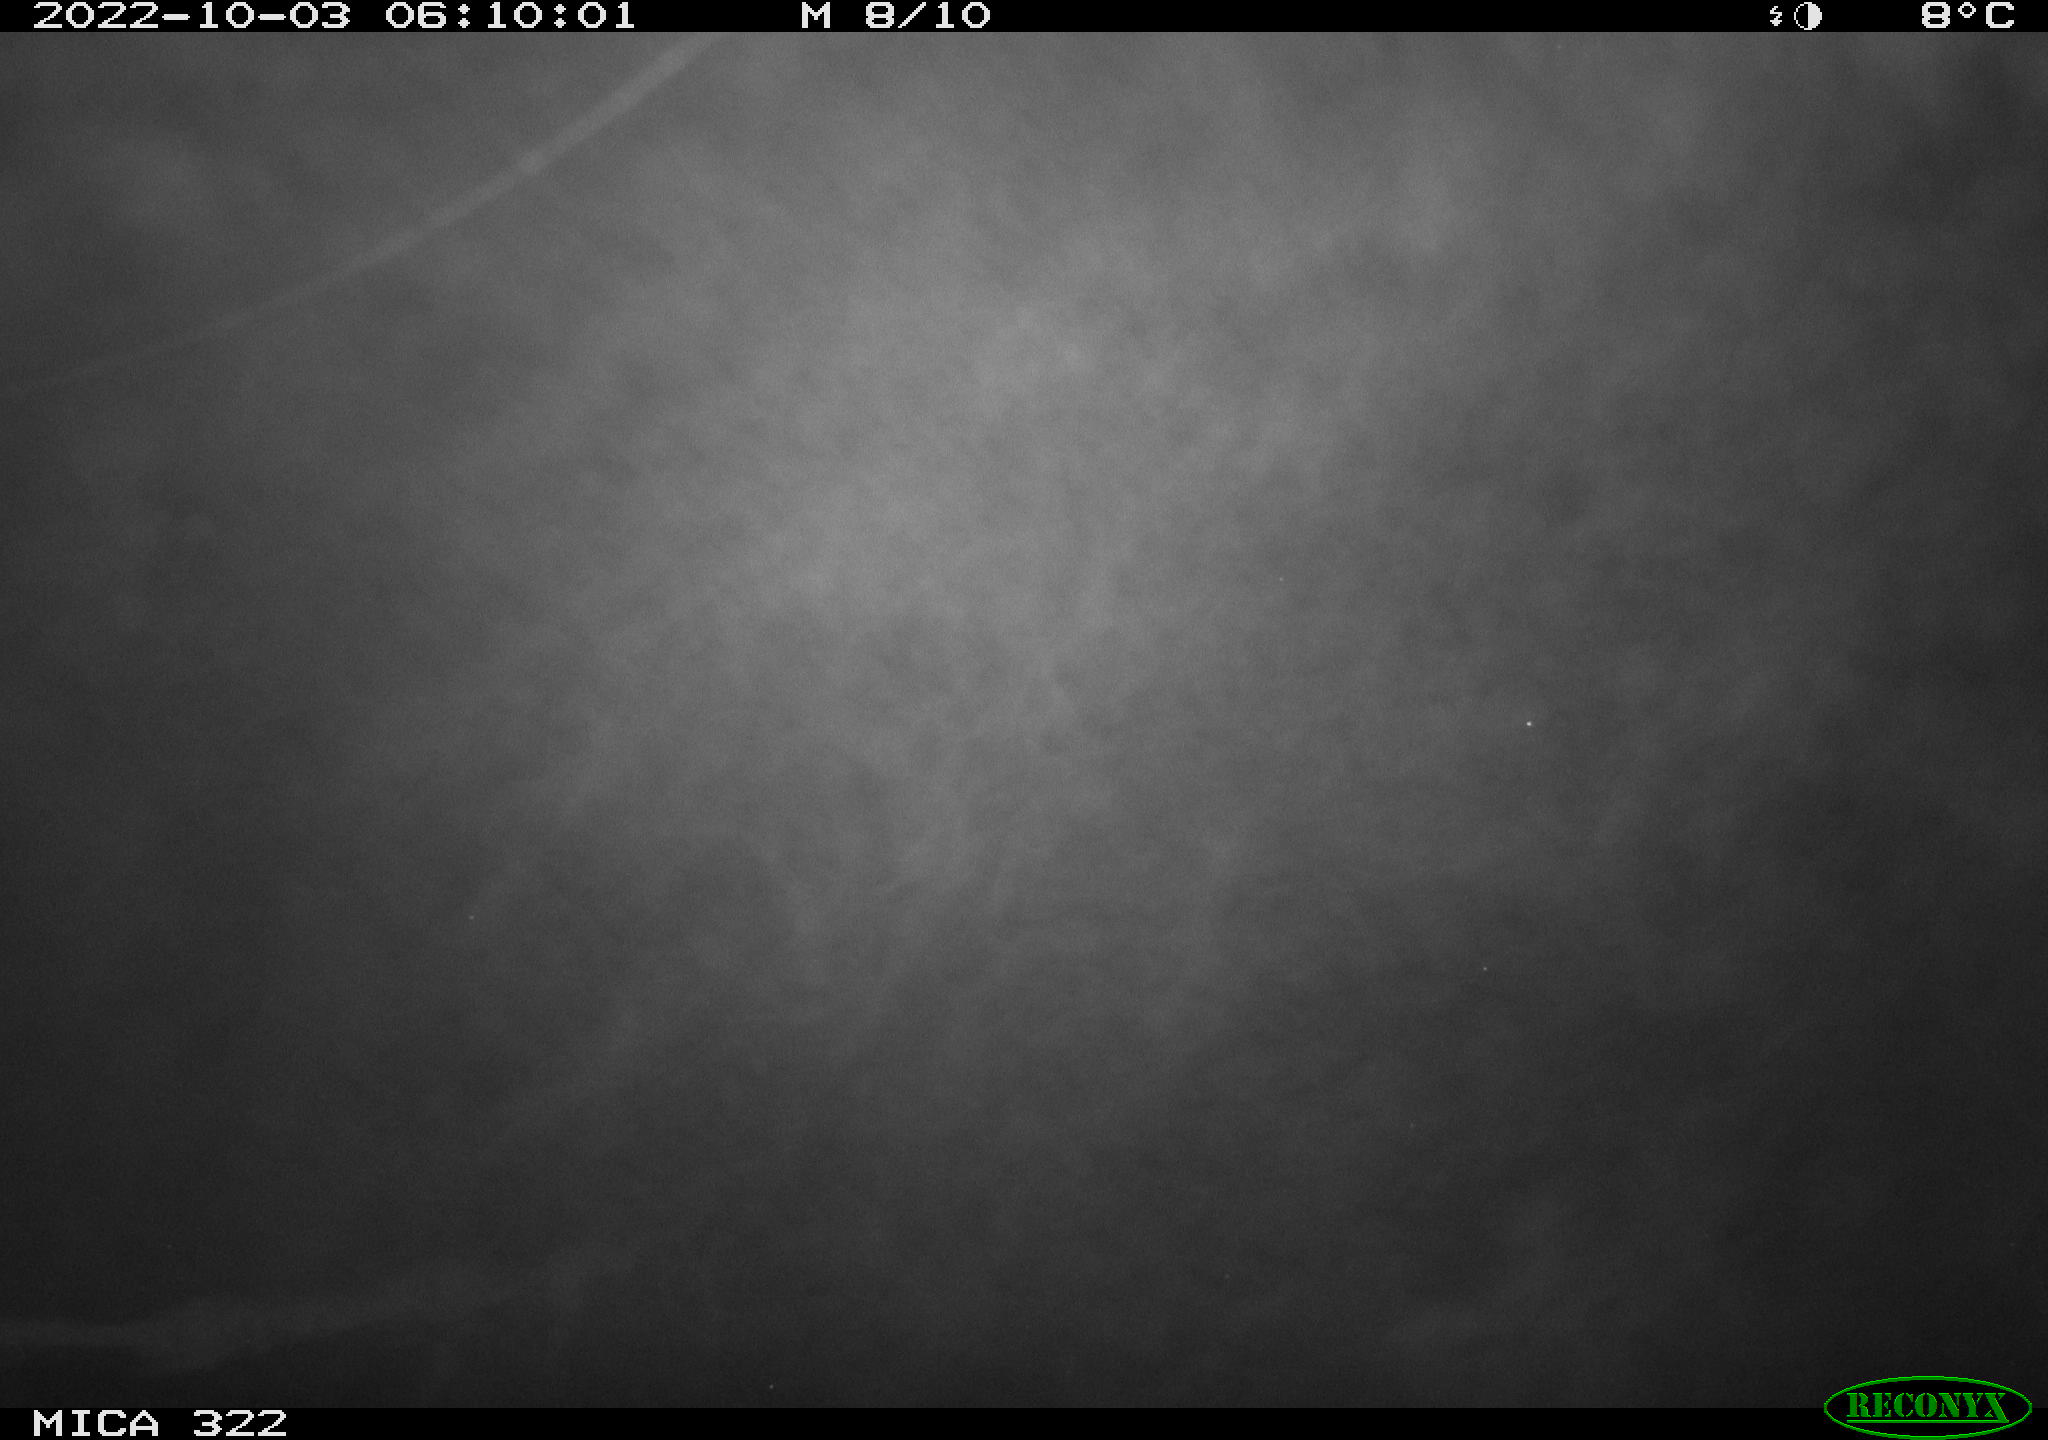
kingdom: Animalia
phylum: Chordata
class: Mammalia
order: Rodentia
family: Cricetidae
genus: Ondatra
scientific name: Ondatra zibethicus
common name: Muskrat
